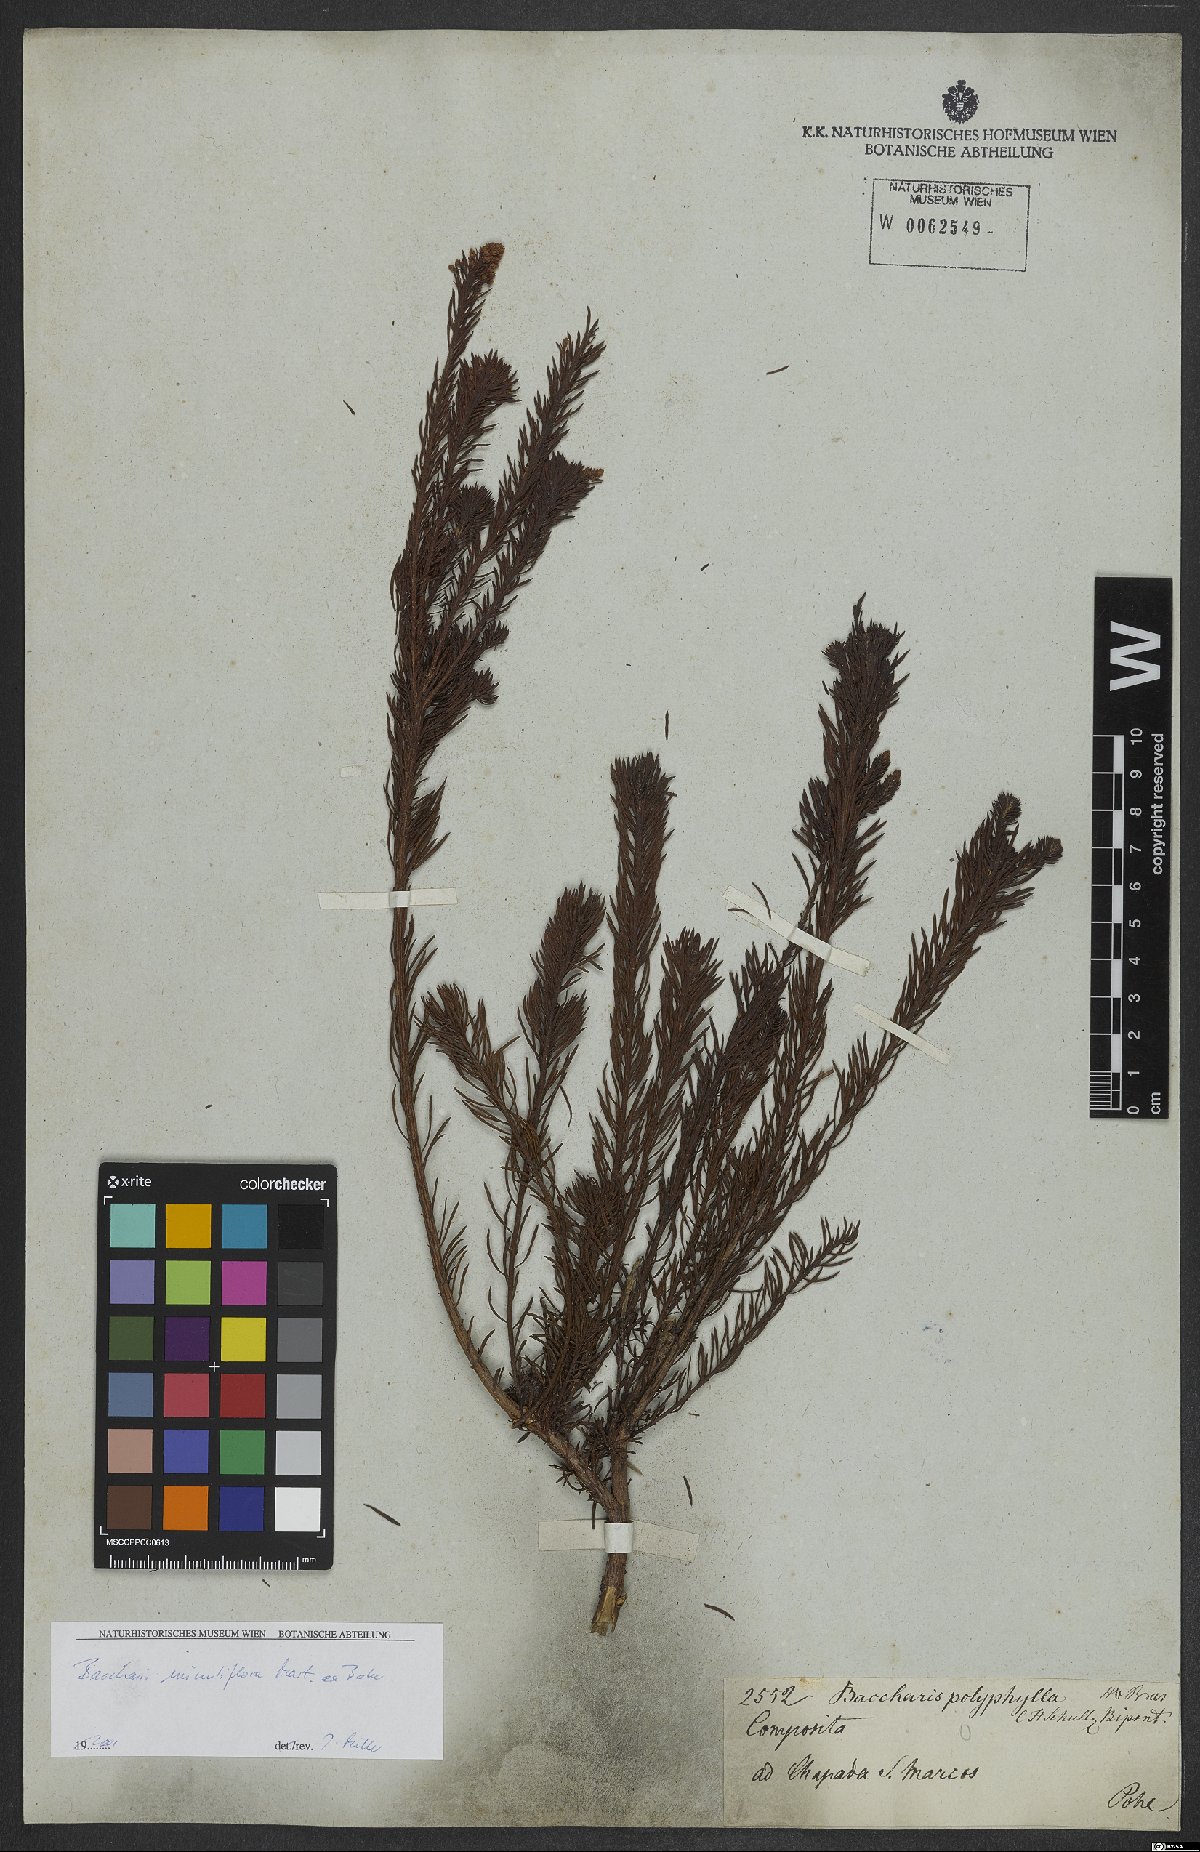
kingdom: Plantae
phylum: Tracheophyta
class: Magnoliopsida
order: Asterales
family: Asteraceae
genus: Baccharis
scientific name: Baccharis minutiflora
